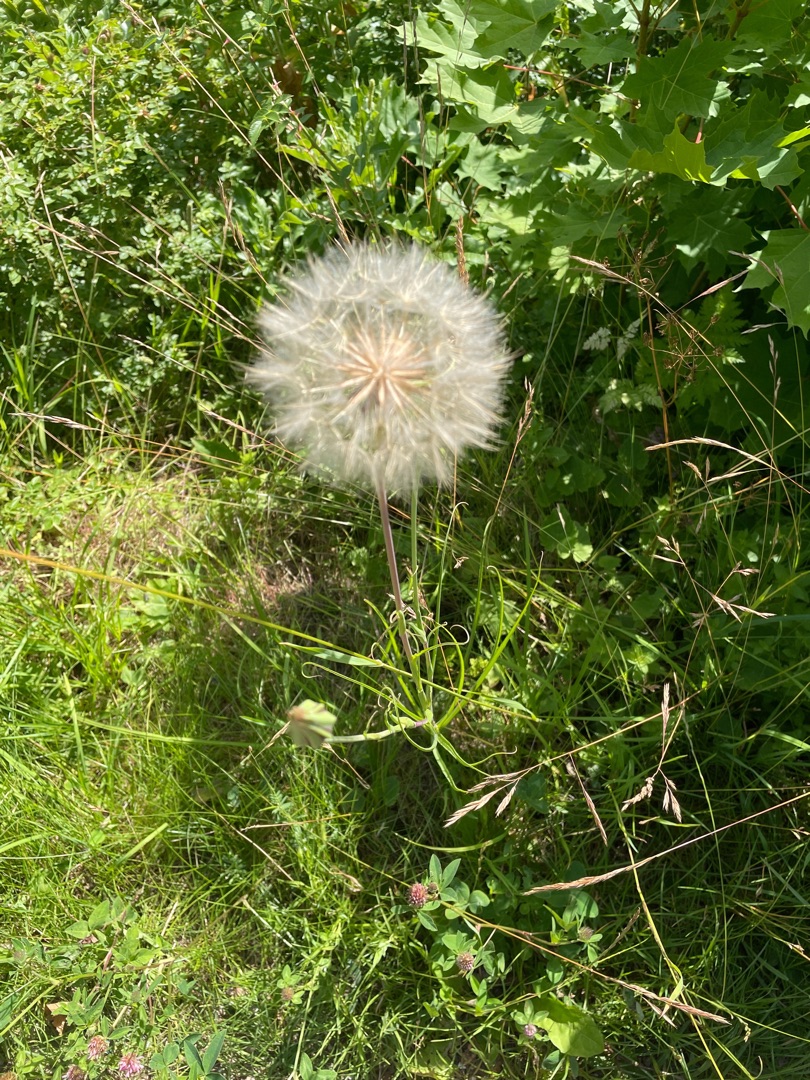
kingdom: Plantae
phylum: Tracheophyta
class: Magnoliopsida
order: Asterales
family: Asteraceae
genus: Tragopogon
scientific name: Tragopogon pratensis
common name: Gedeskæg
